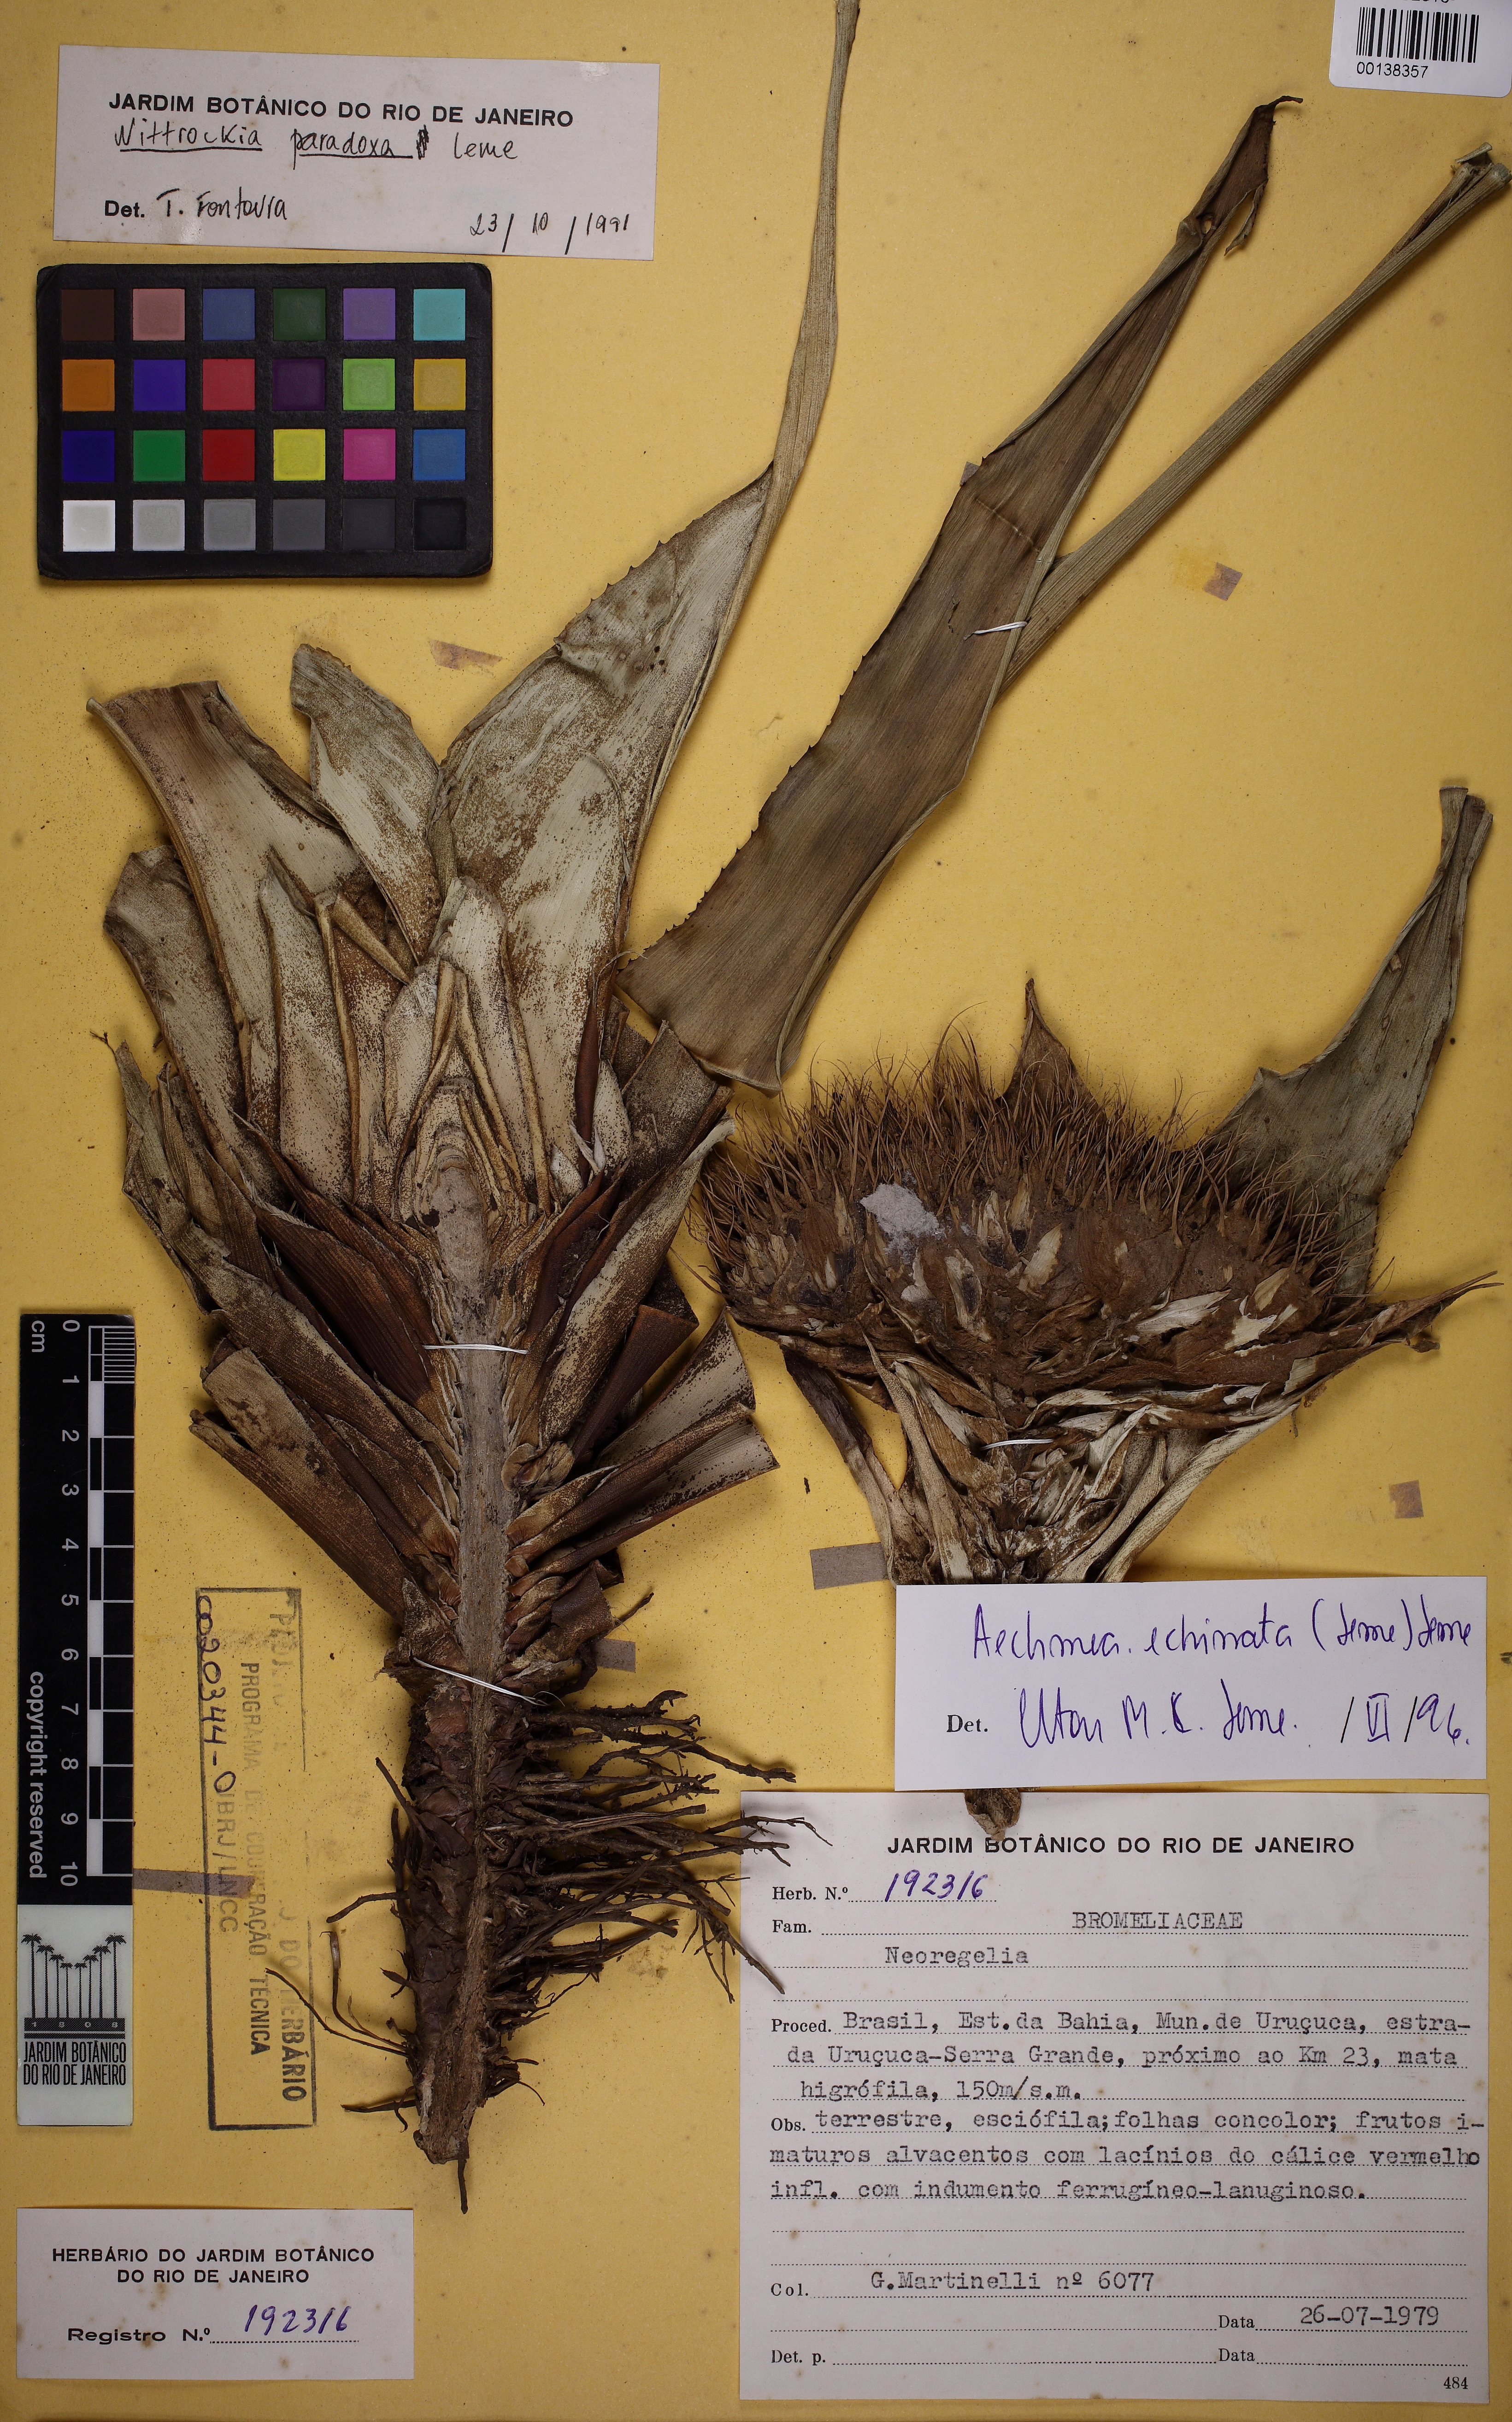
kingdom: Plantae
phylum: Tracheophyta
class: Liliopsida
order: Poales
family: Bromeliaceae
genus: Aechmea
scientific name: Aechmea echinata
